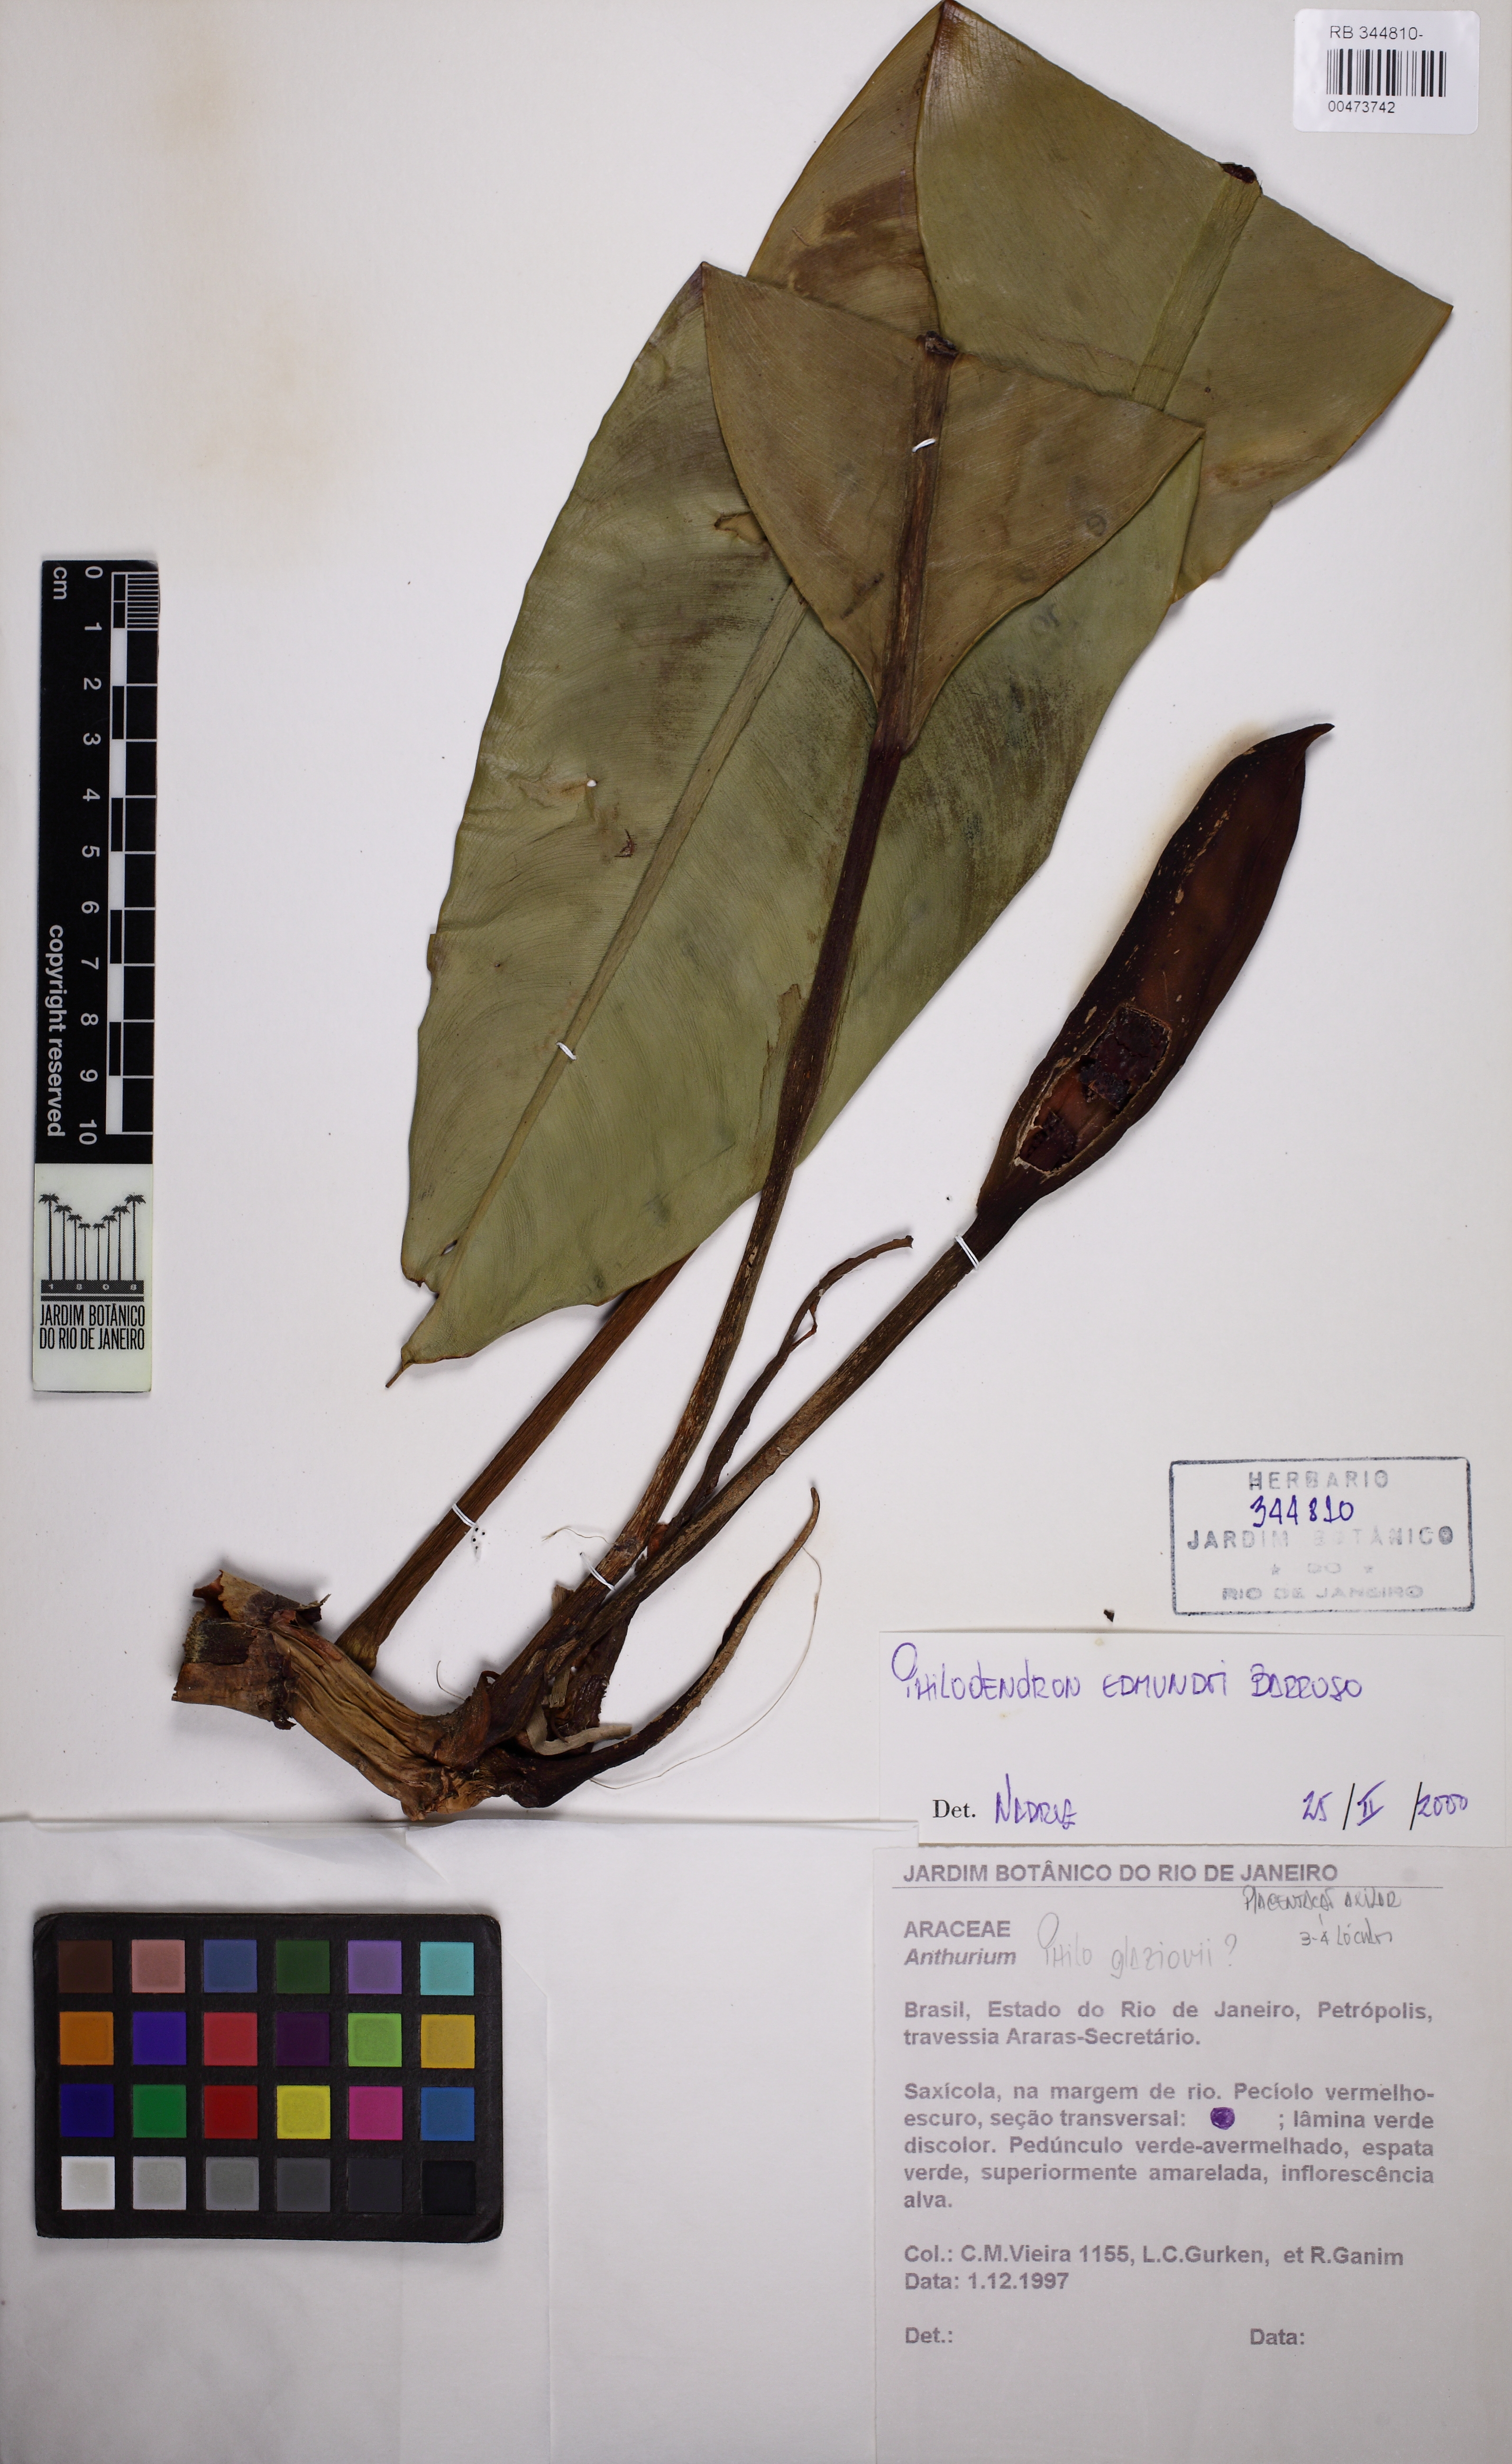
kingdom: Plantae
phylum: Tracheophyta
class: Liliopsida
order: Alismatales
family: Araceae
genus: Philodendron
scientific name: Philodendron edmundoi
